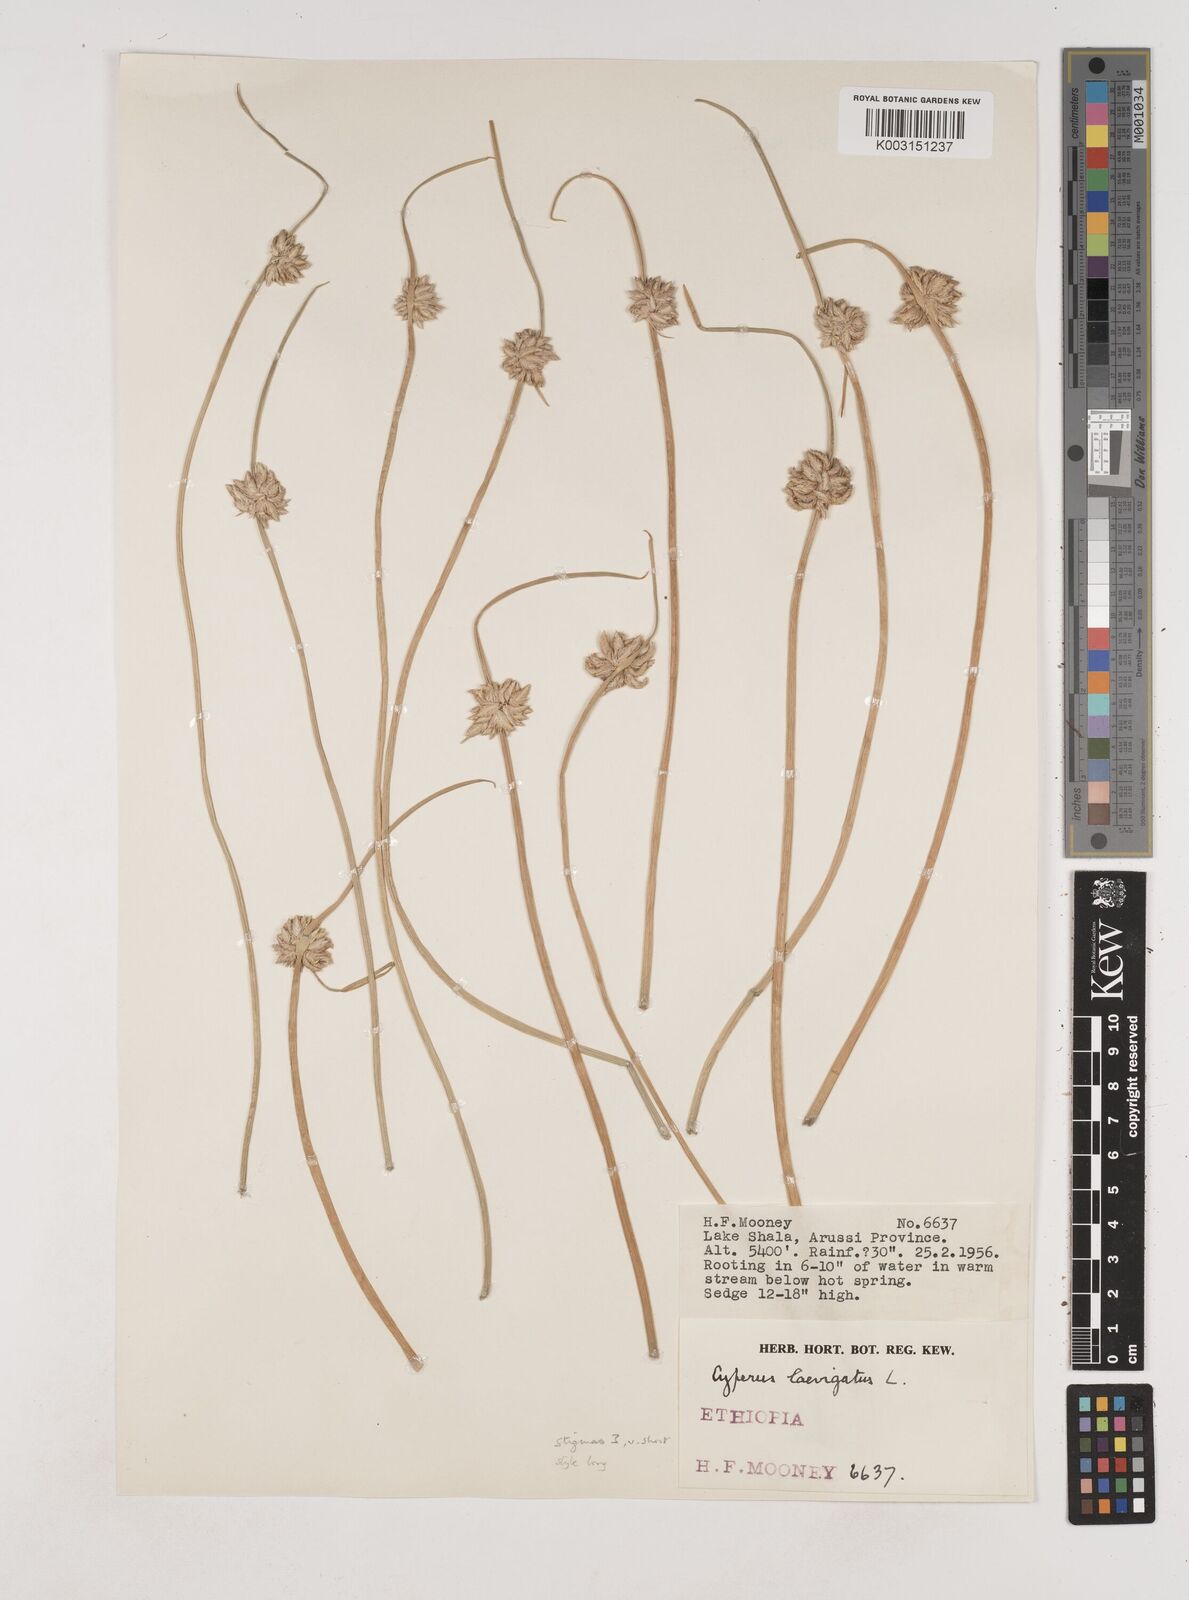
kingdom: Plantae
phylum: Tracheophyta
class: Liliopsida
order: Poales
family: Cyperaceae
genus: Cyperus
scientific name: Cyperus laevigatus
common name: Smooth flat sedge
